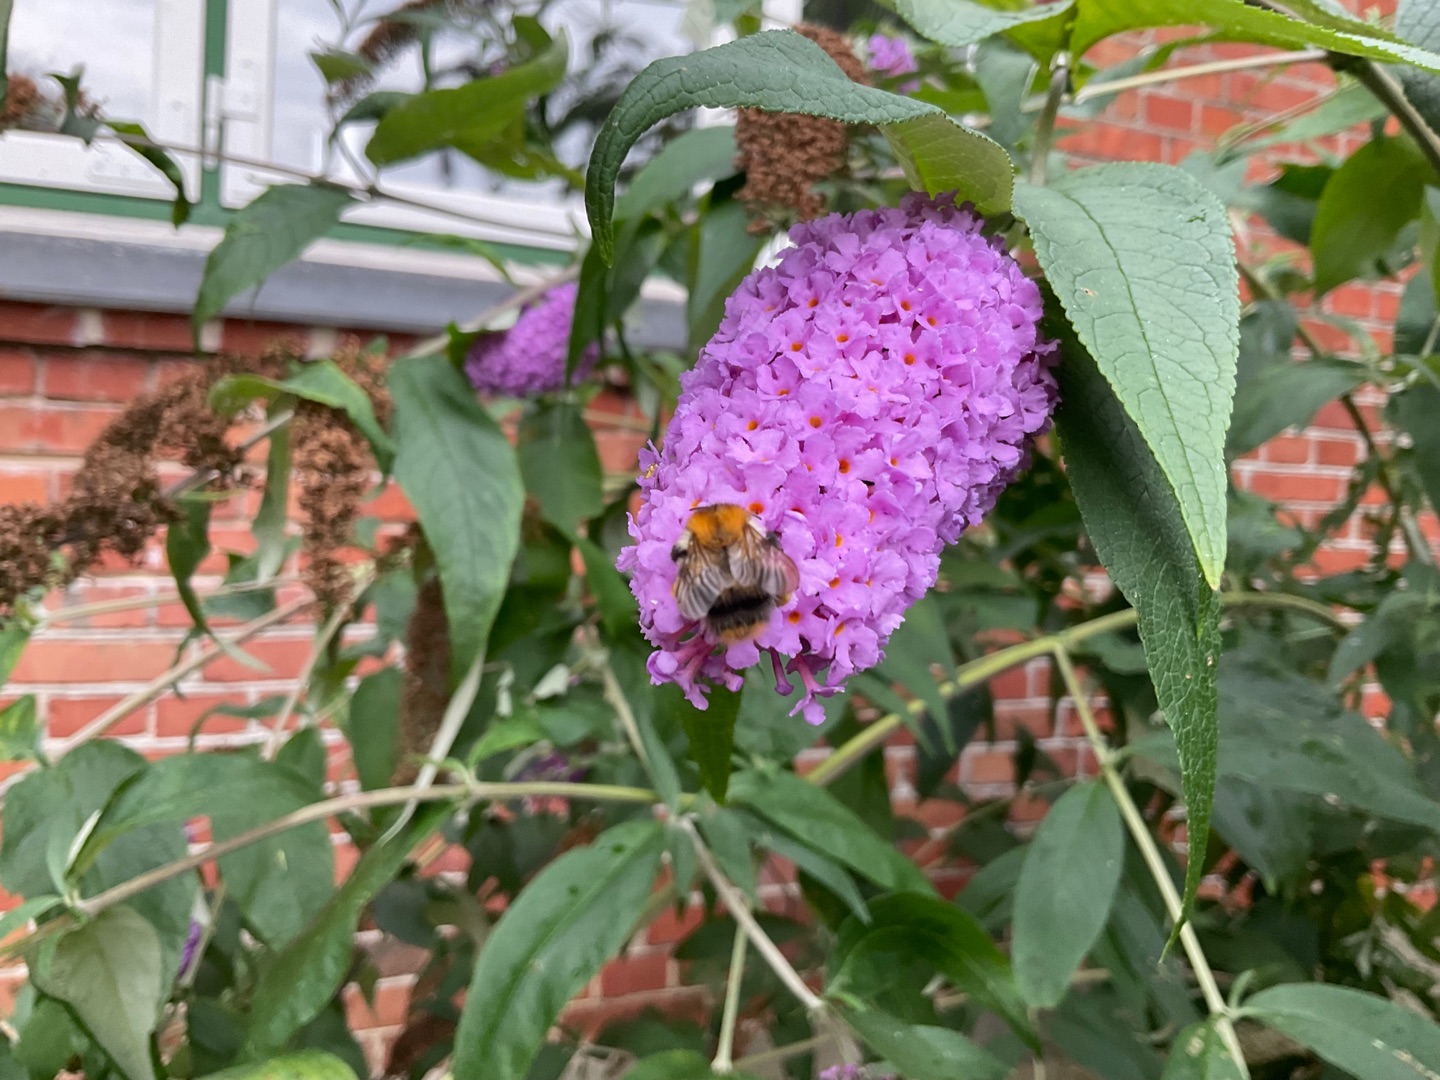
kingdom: Plantae
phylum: Tracheophyta
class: Magnoliopsida
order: Lamiales
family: Scrophulariaceae
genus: Buddleja
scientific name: Buddleja davidii
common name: Sommerfuglebusk
